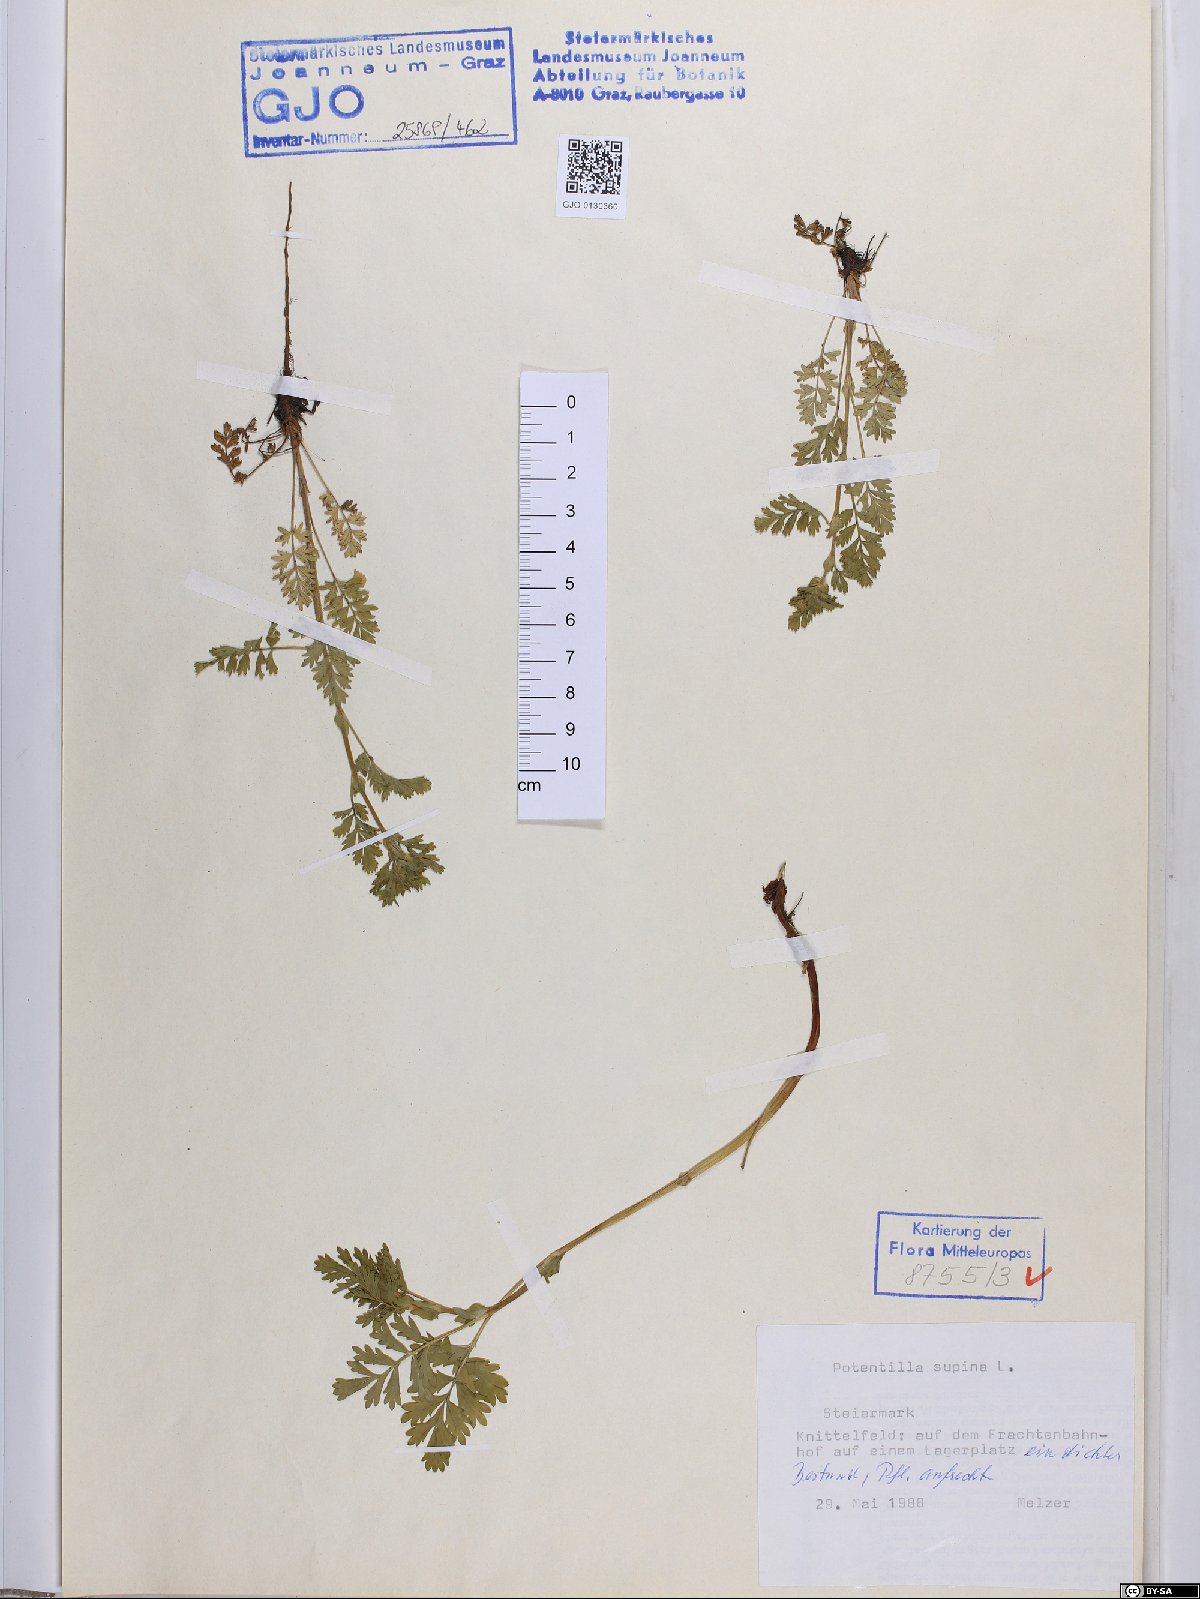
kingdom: Plantae
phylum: Tracheophyta
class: Magnoliopsida
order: Rosales
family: Rosaceae
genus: Potentilla
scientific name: Potentilla supina
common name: Prostrate cinquefoil
